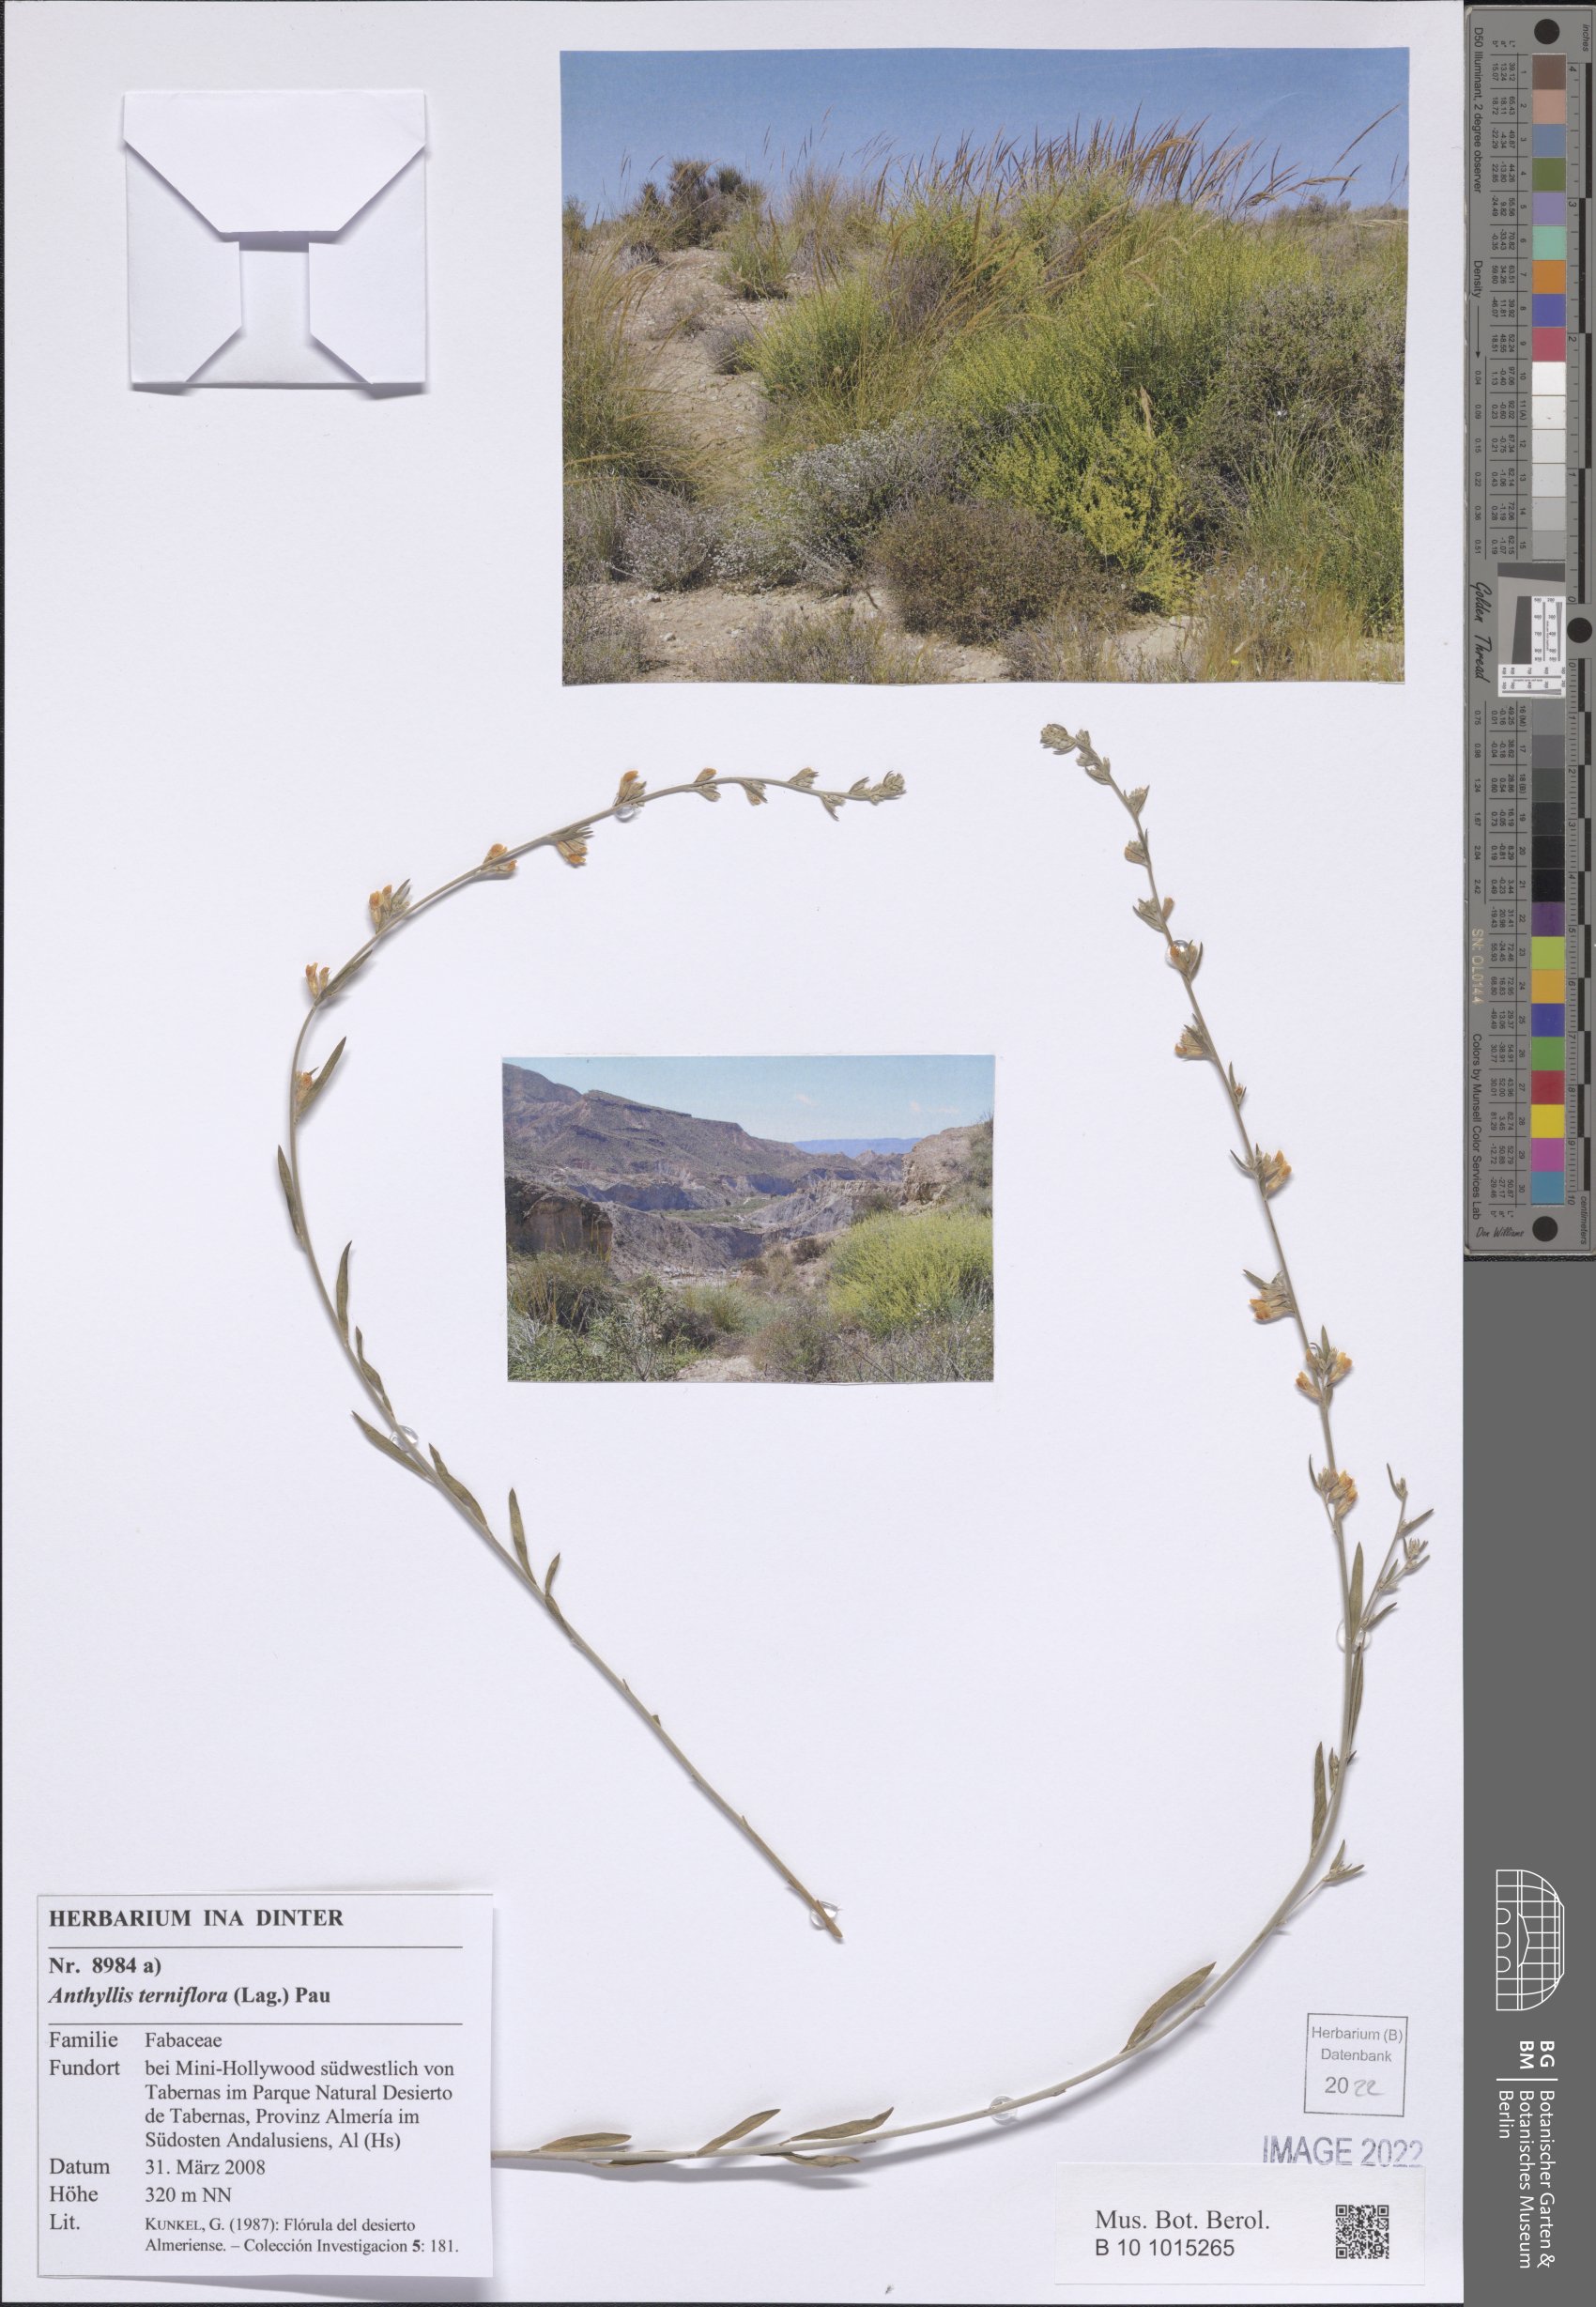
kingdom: Plantae
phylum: Tracheophyta
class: Magnoliopsida
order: Fabales
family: Fabaceae
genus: Anthyllis
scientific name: Anthyllis terniflora
